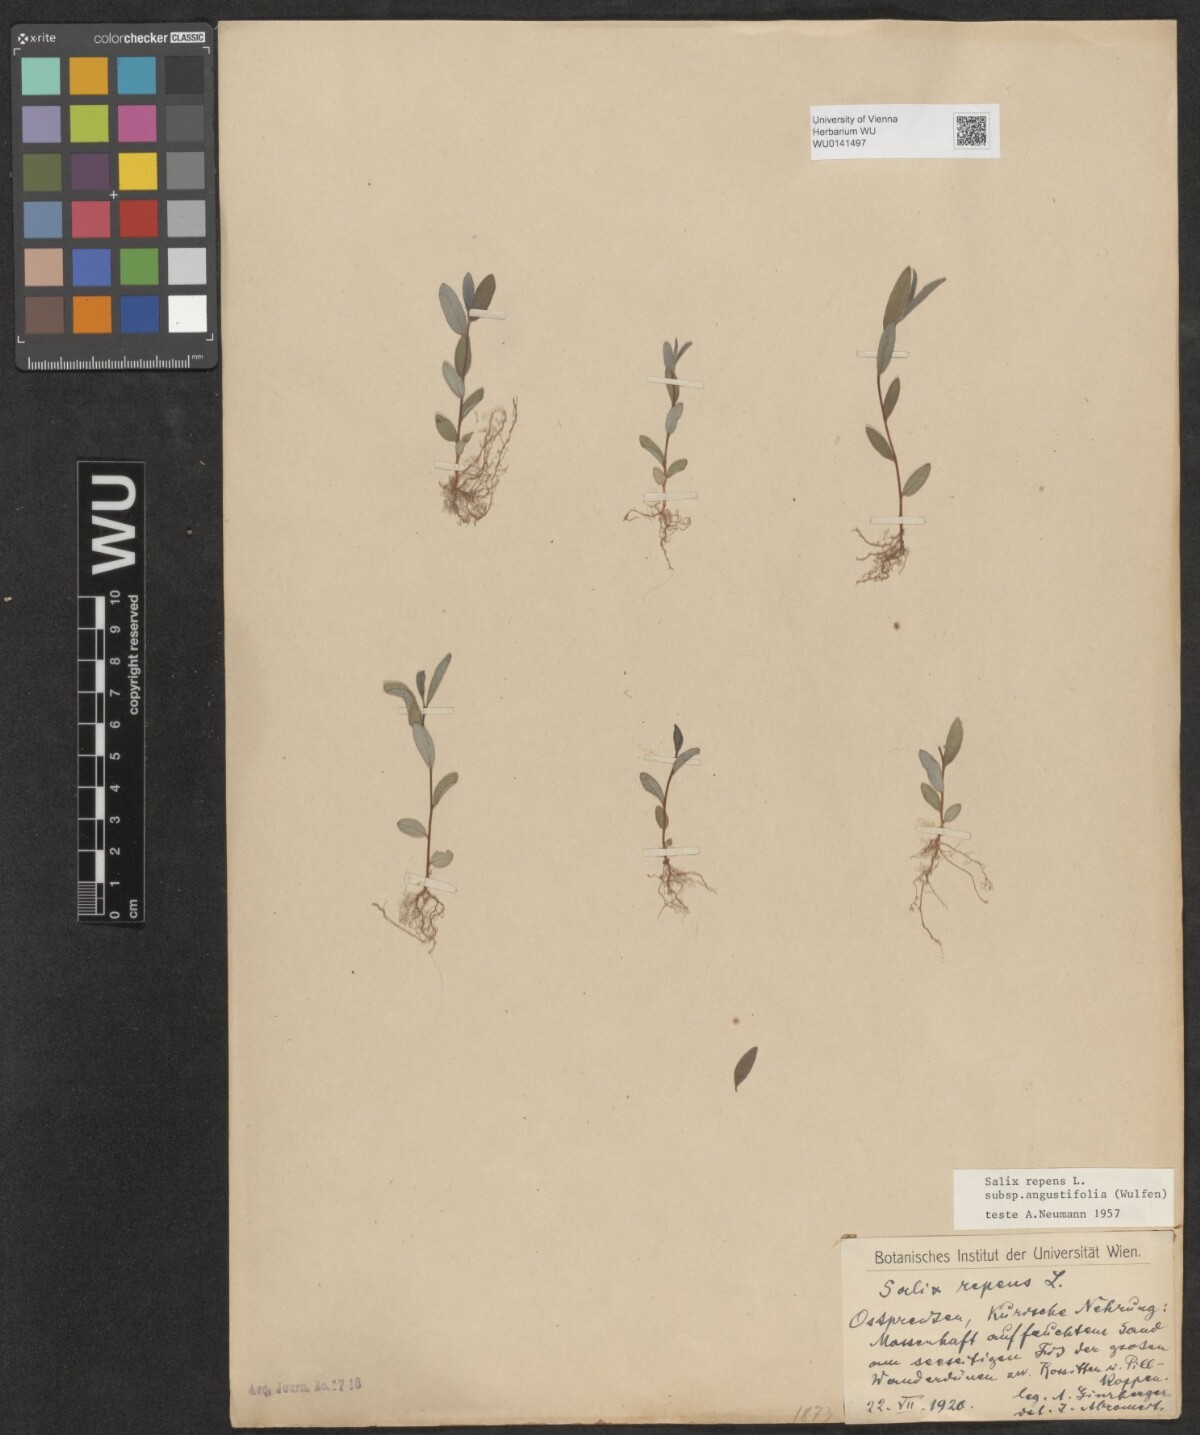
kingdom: Plantae
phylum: Tracheophyta
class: Magnoliopsida
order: Malpighiales
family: Salicaceae
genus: Salix
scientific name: Salix rosmarinifolia
